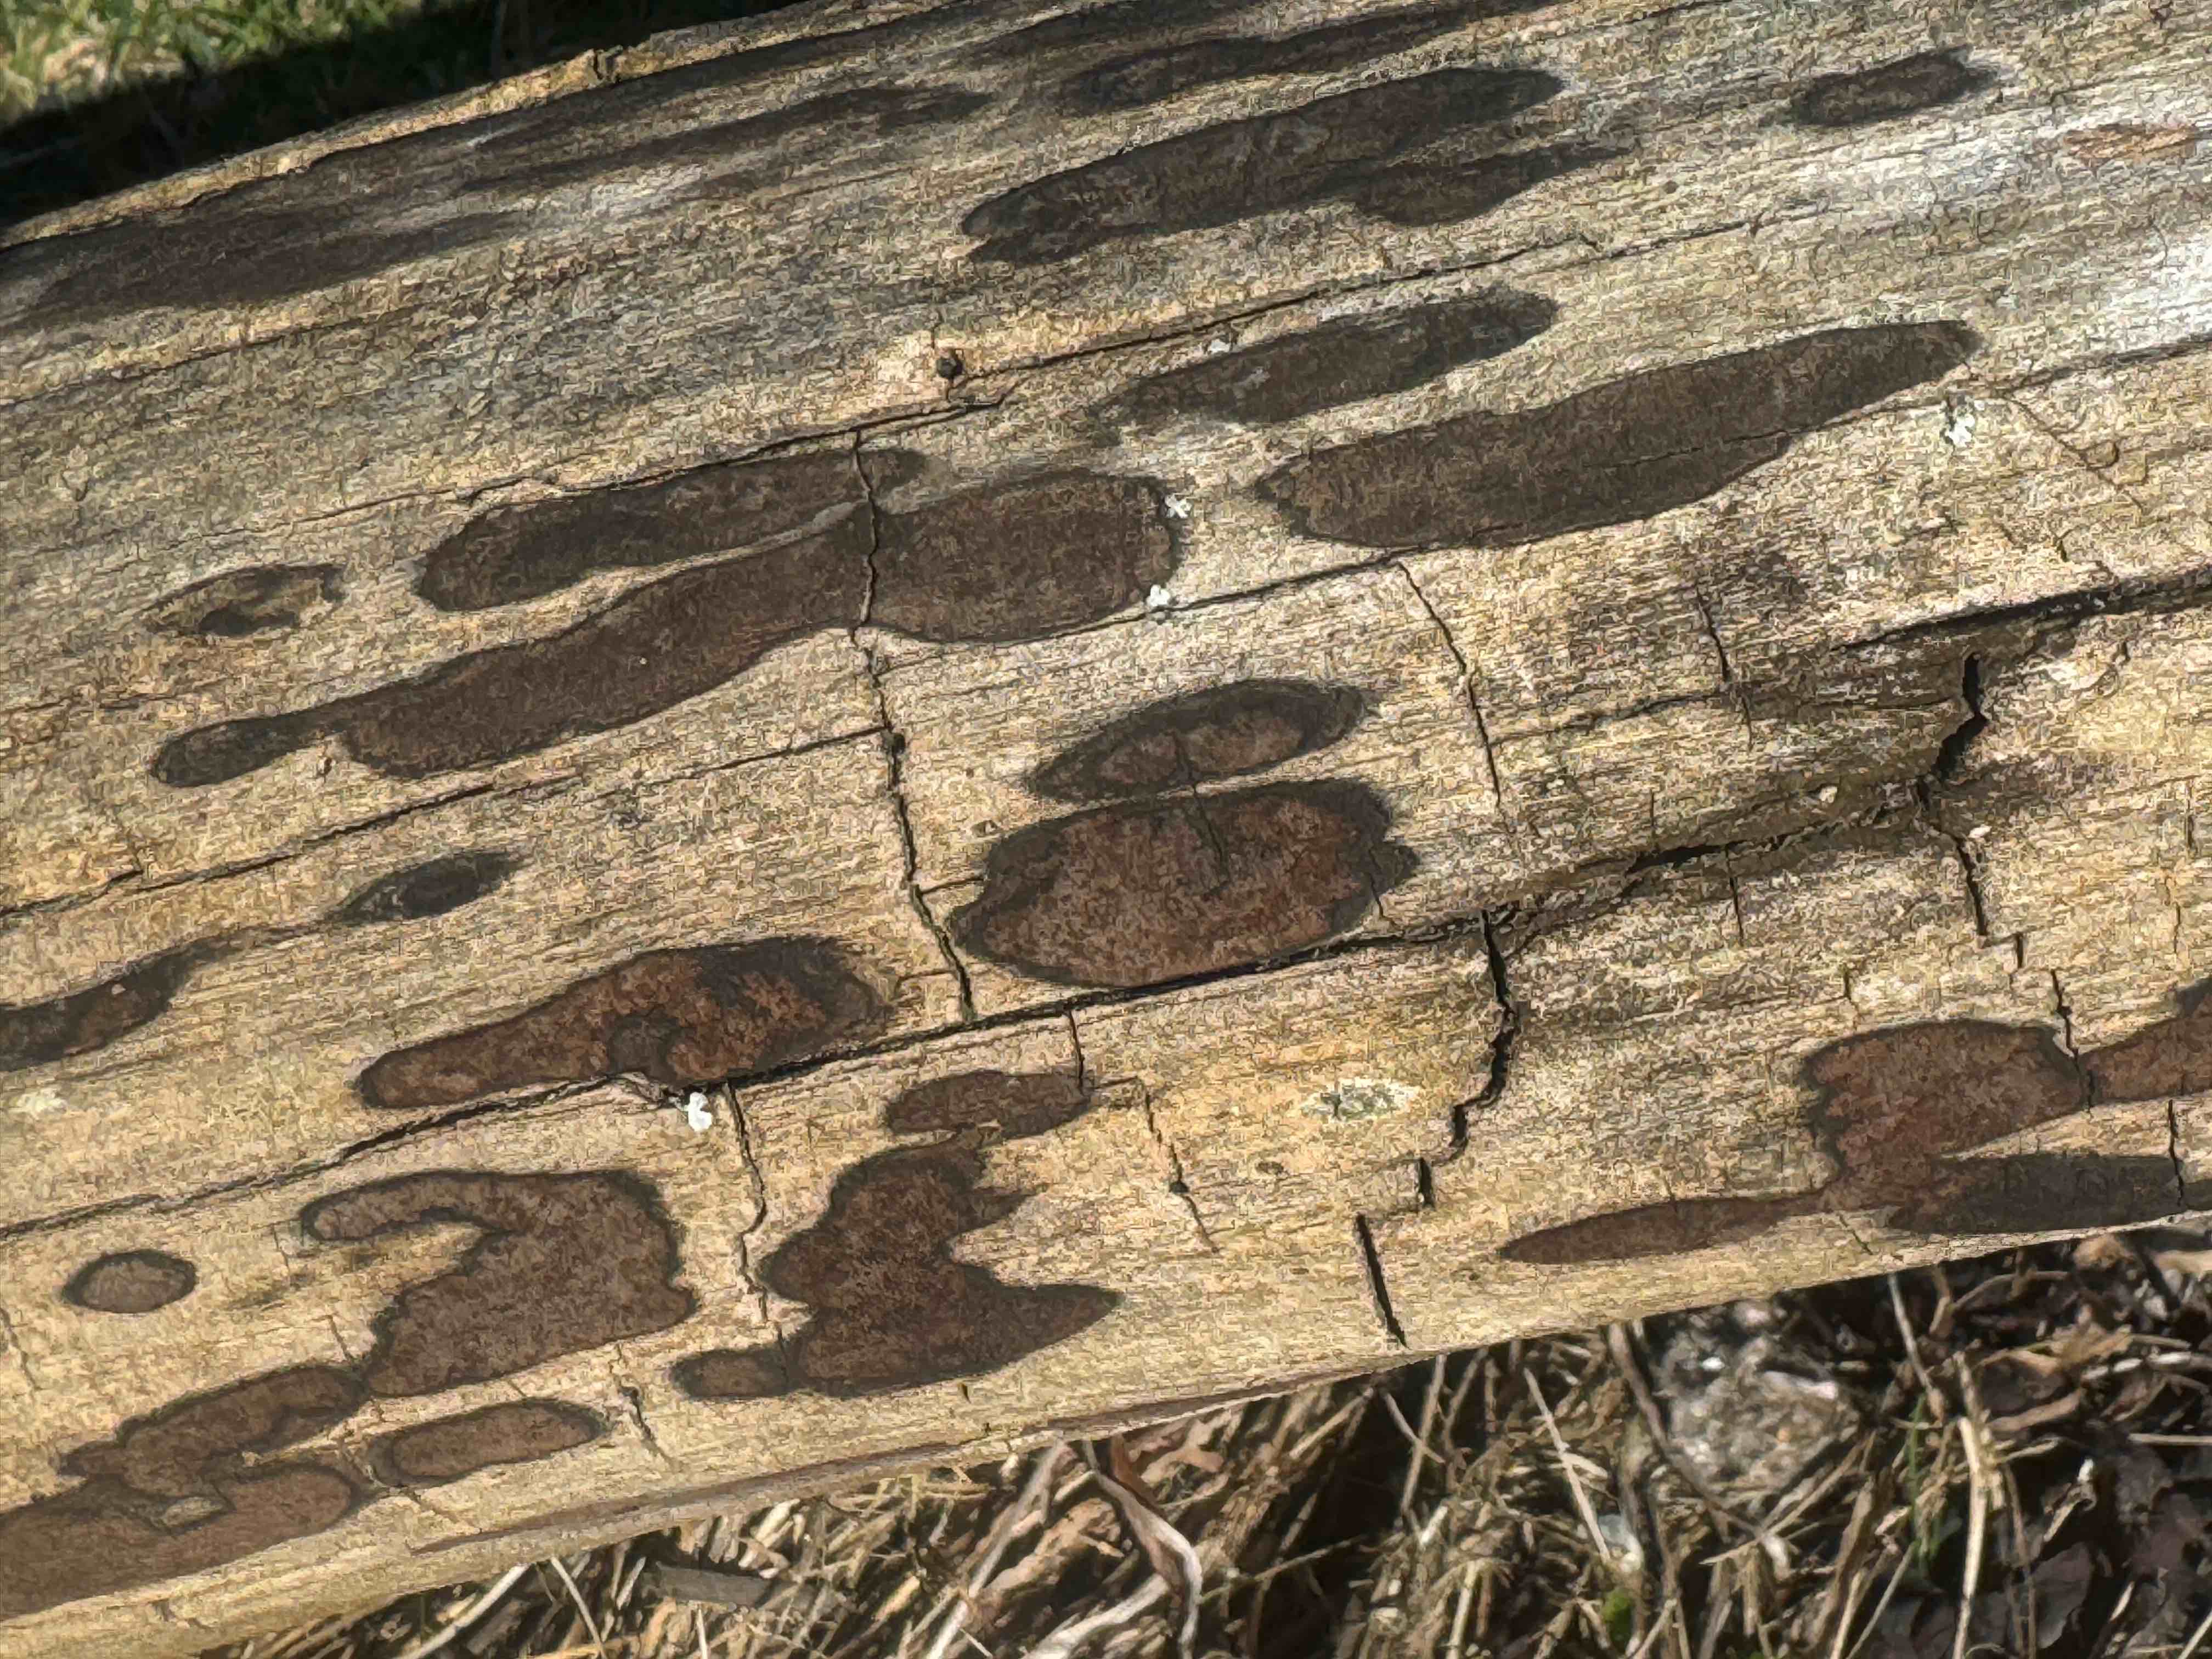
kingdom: Fungi
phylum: Ascomycota
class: Sordariomycetes
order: Xylariales
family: Hypoxylaceae
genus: Hypoxylon
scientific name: Hypoxylon petriniae
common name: nedsænket kulbær
